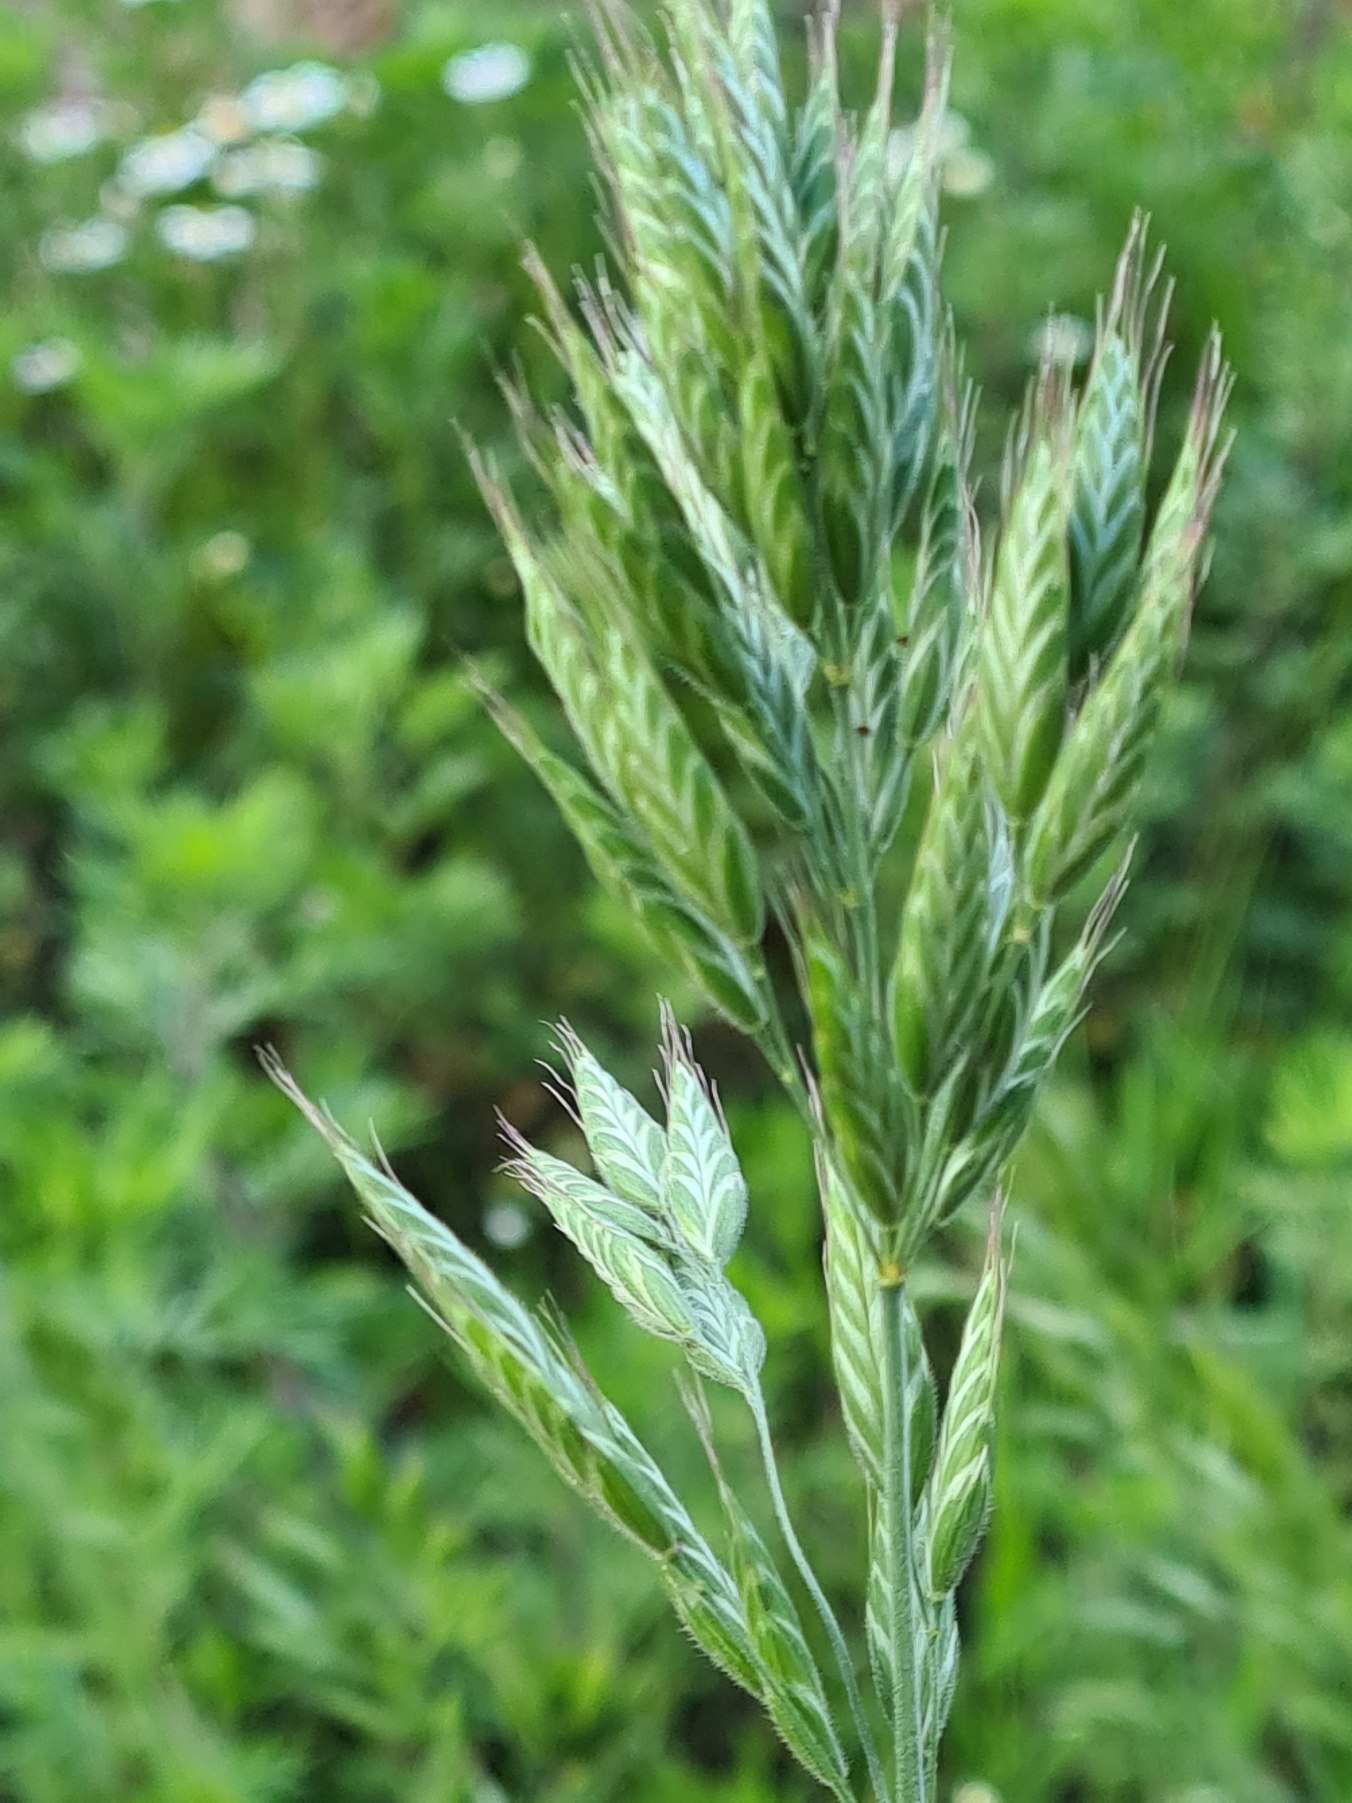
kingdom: Plantae
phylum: Tracheophyta
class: Liliopsida
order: Poales
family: Poaceae
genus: Bromus
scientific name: Bromus hordeaceus
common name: Blød hejre
